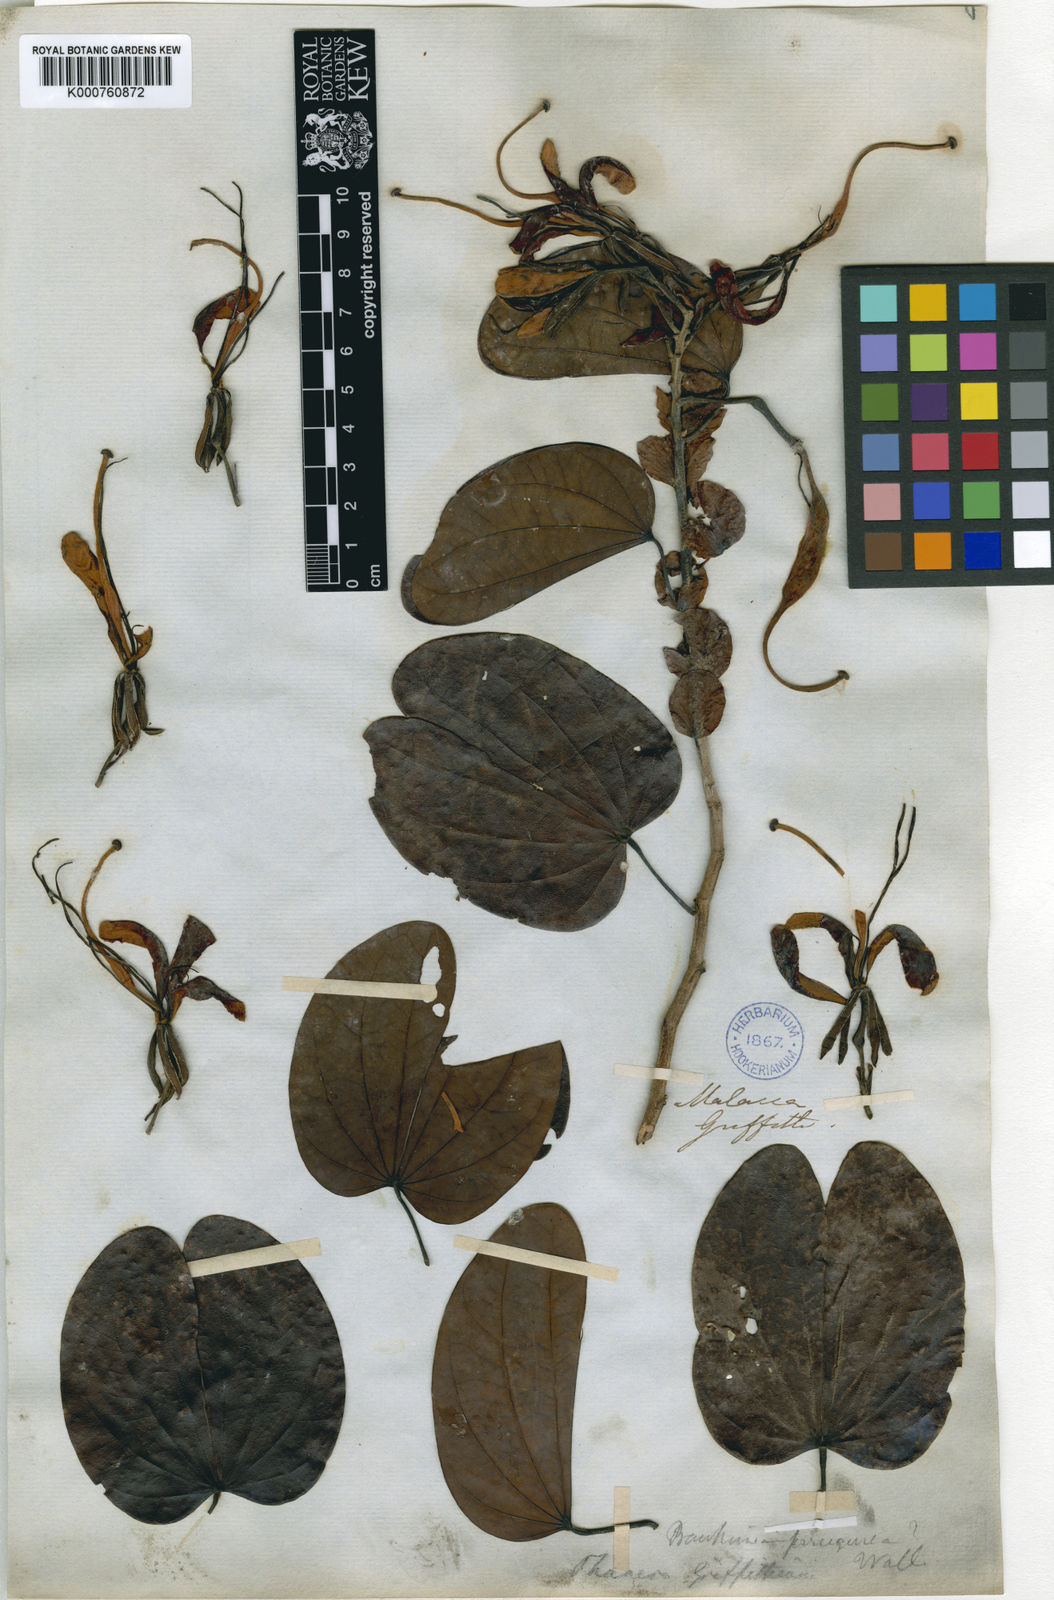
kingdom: Plantae
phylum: Tracheophyta
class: Magnoliopsida
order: Fabales
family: Fabaceae
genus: Phanera
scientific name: Phanera ferruginea
